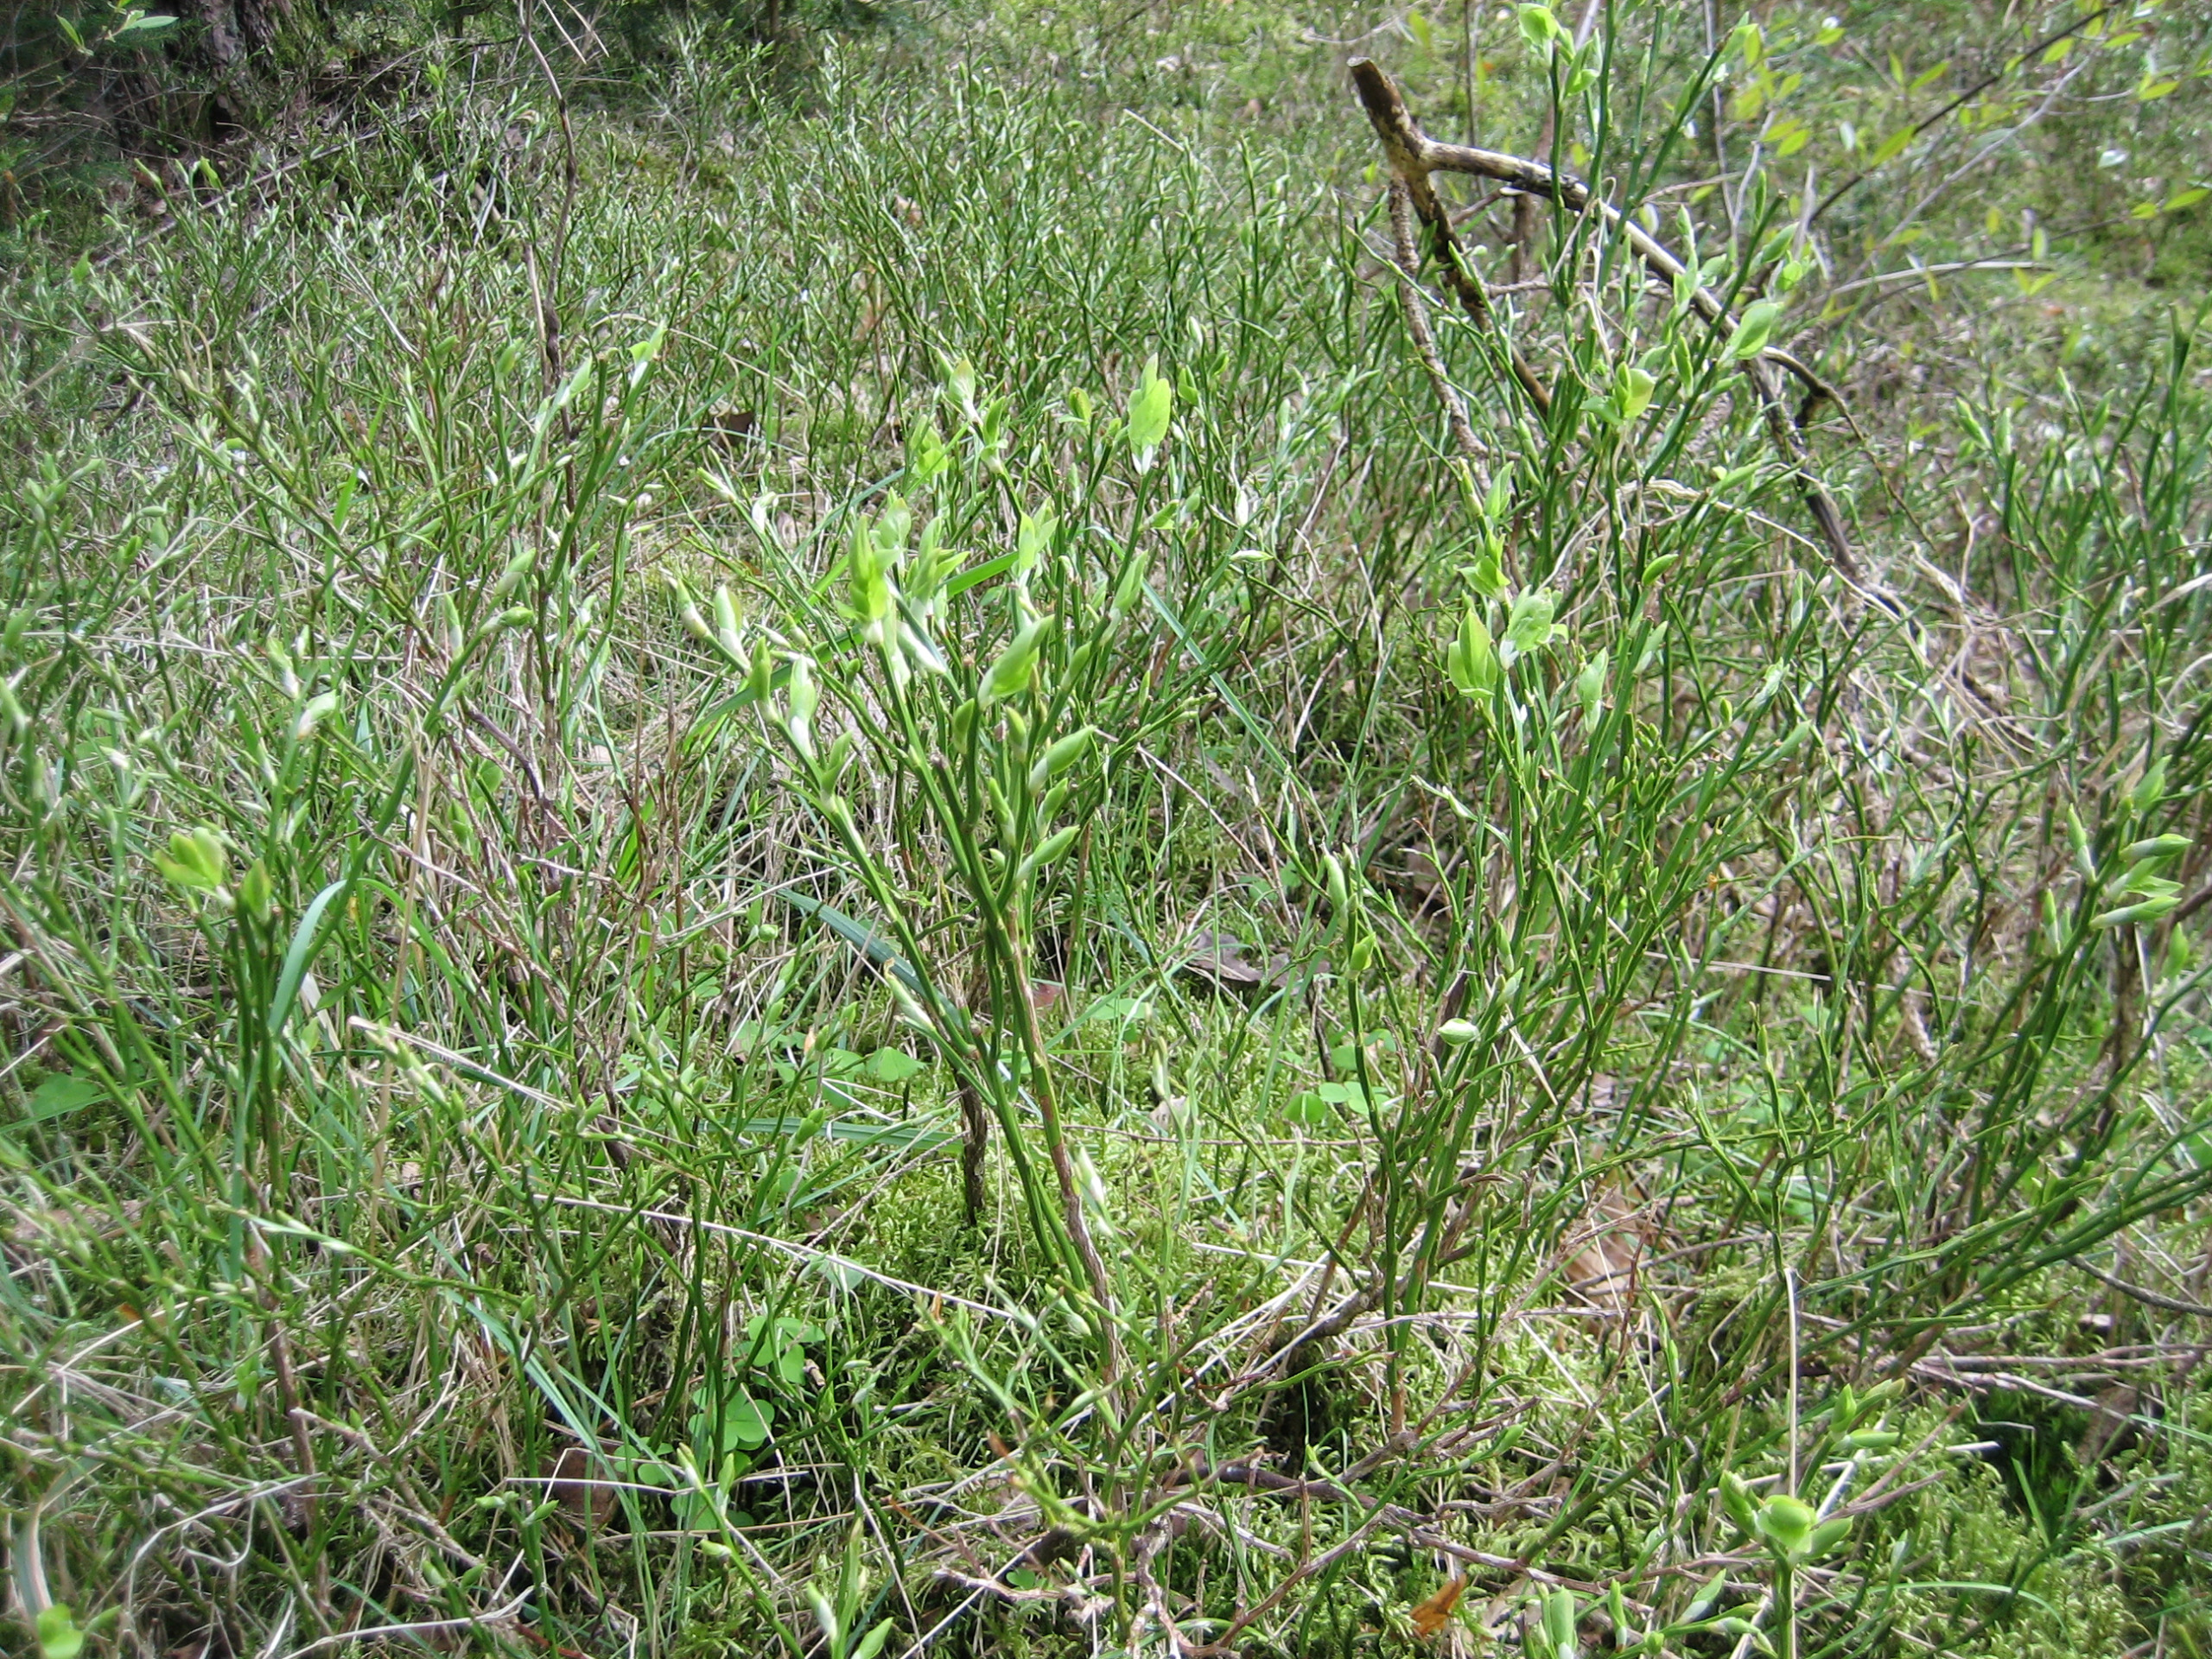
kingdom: Plantae
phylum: Tracheophyta
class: Magnoliopsida
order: Ericales
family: Ericaceae
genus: Vaccinium
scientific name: Vaccinium myrtillus
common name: Blåbær
